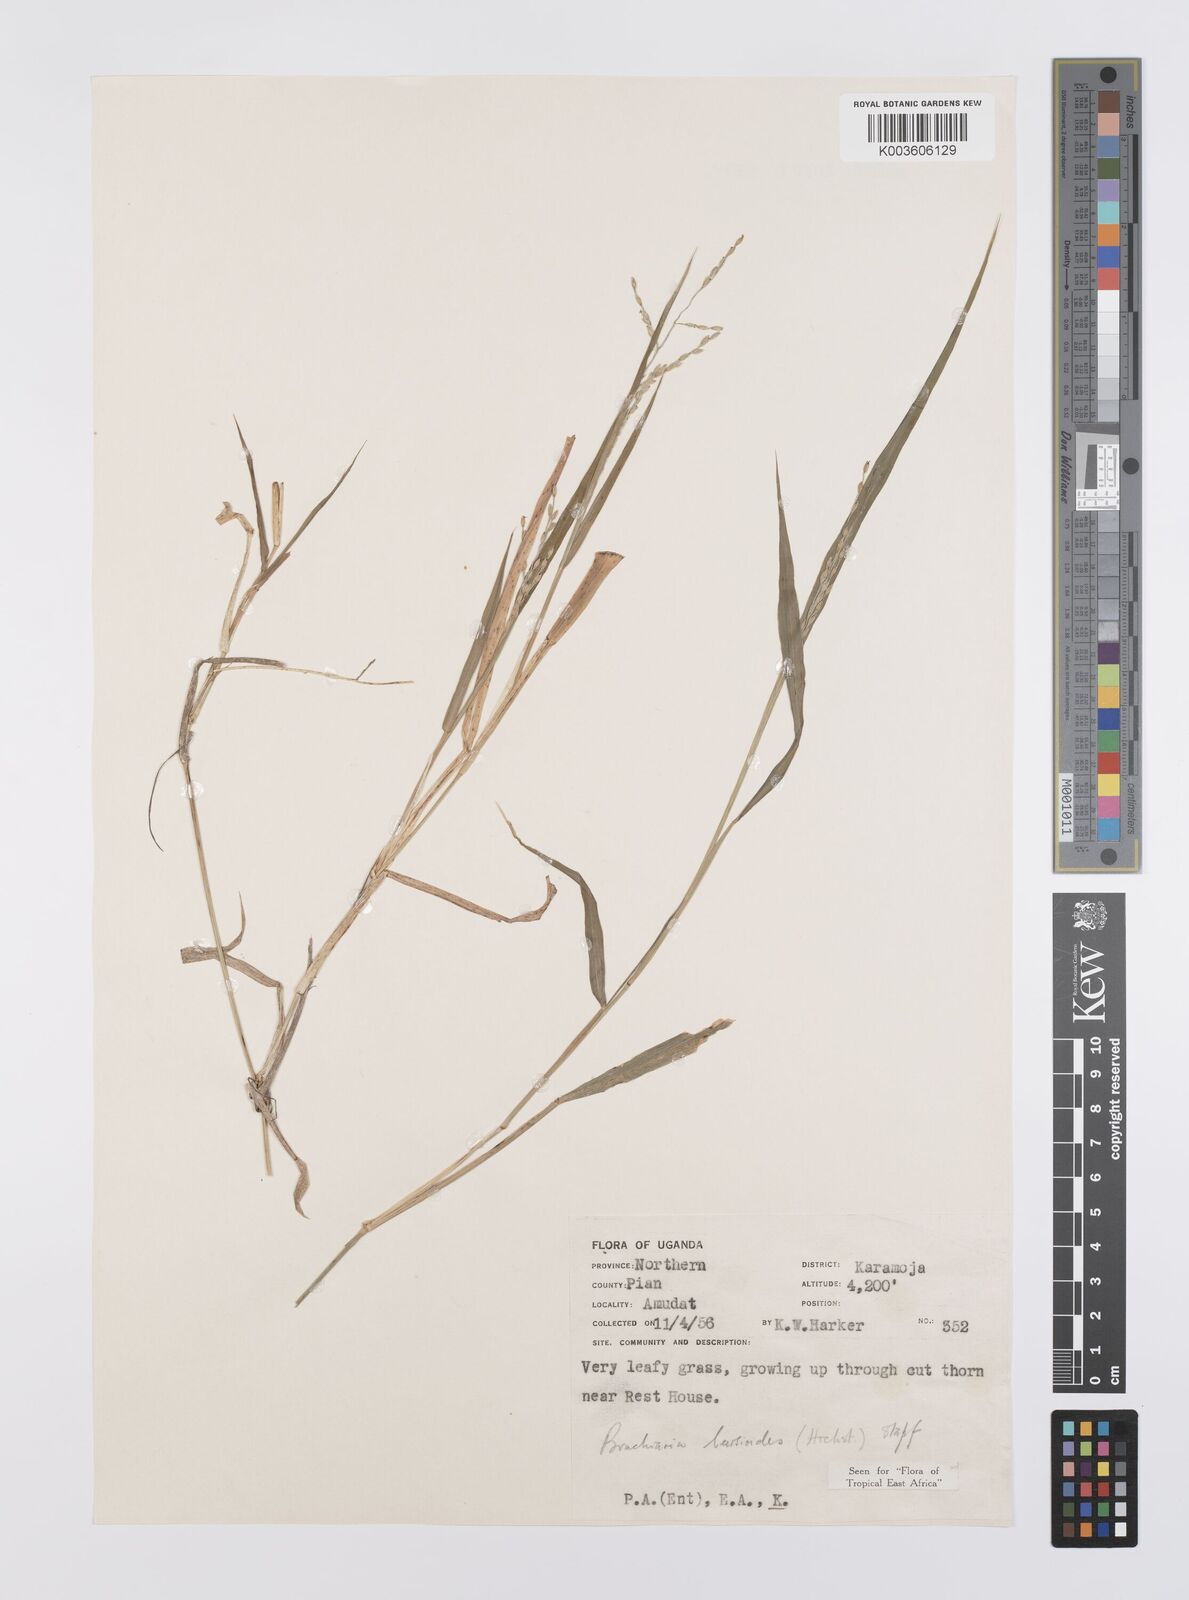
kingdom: Plantae
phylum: Tracheophyta
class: Liliopsida
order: Poales
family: Poaceae
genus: Urochloa
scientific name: Urochloa leersioides
